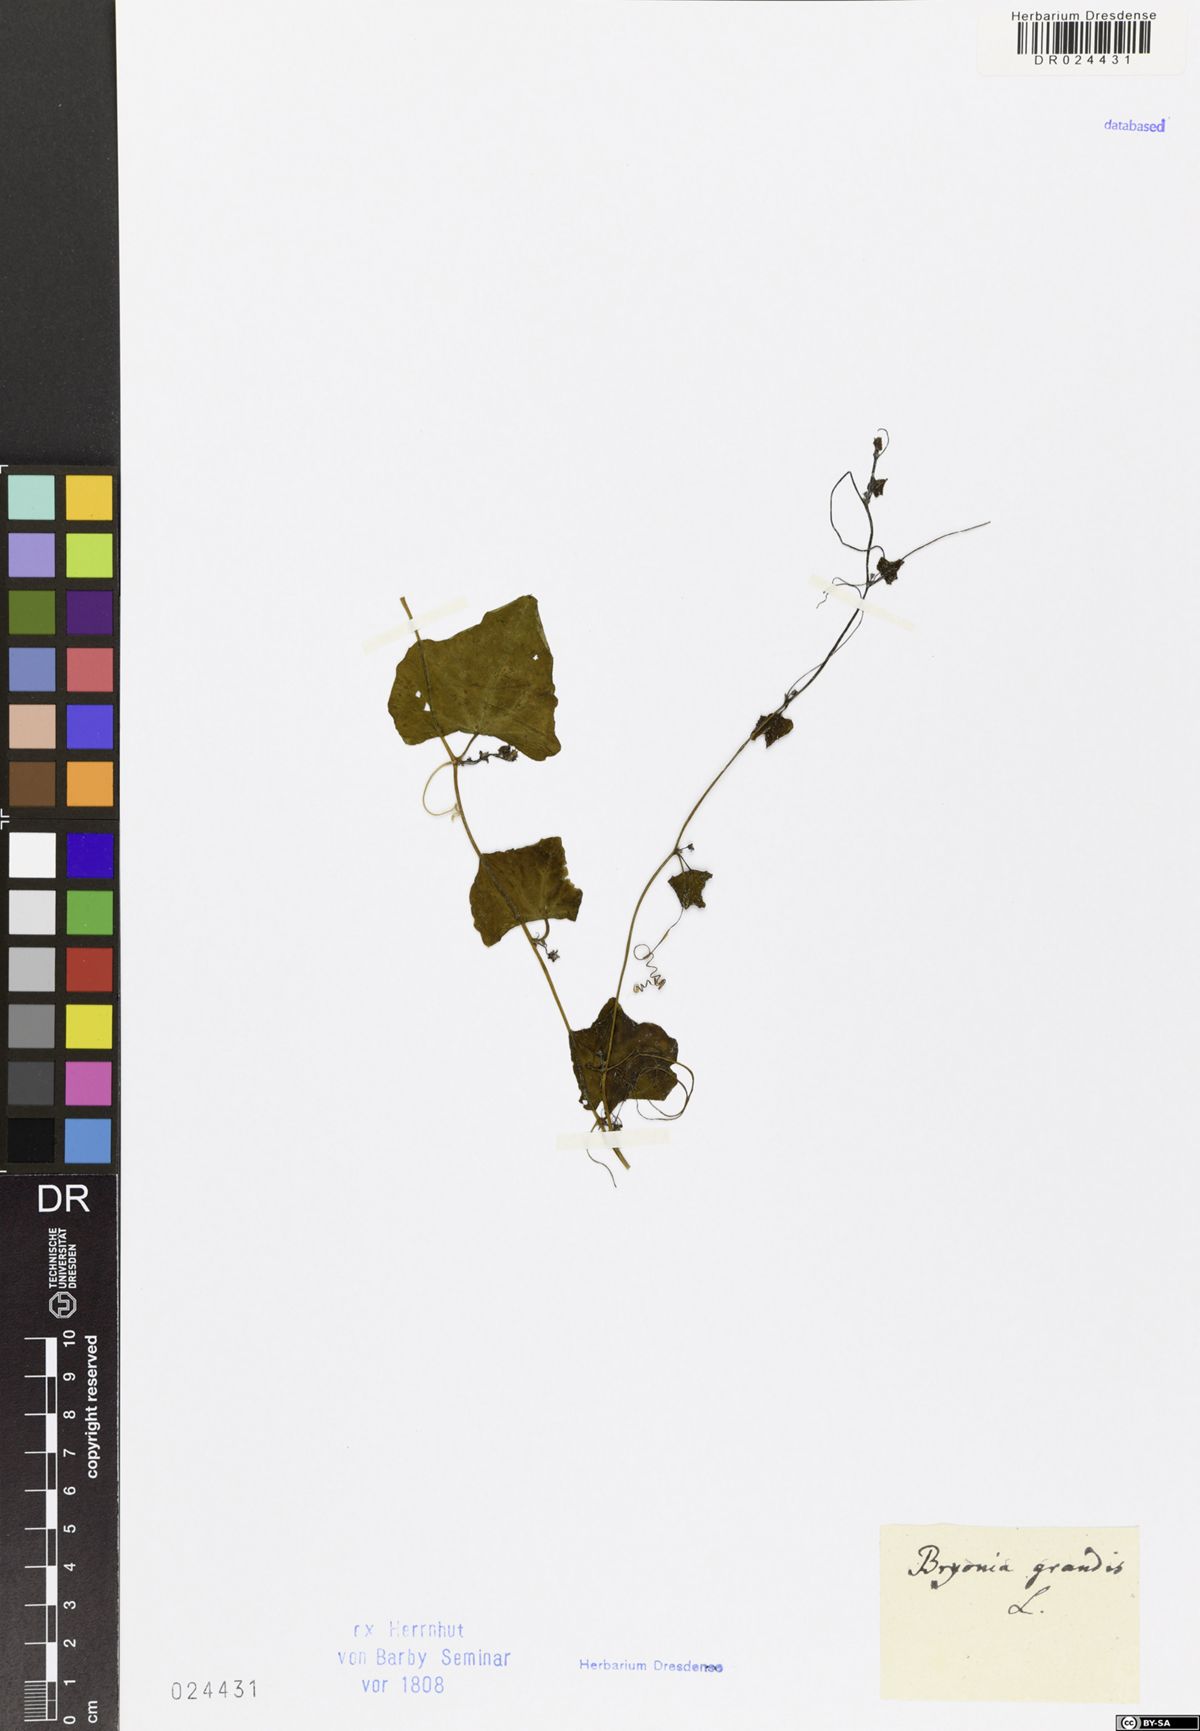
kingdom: Plantae
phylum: Tracheophyta
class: Magnoliopsida
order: Cucurbitales
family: Cucurbitaceae
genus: Coccinia
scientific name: Coccinia grandis
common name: Ivy gourd
